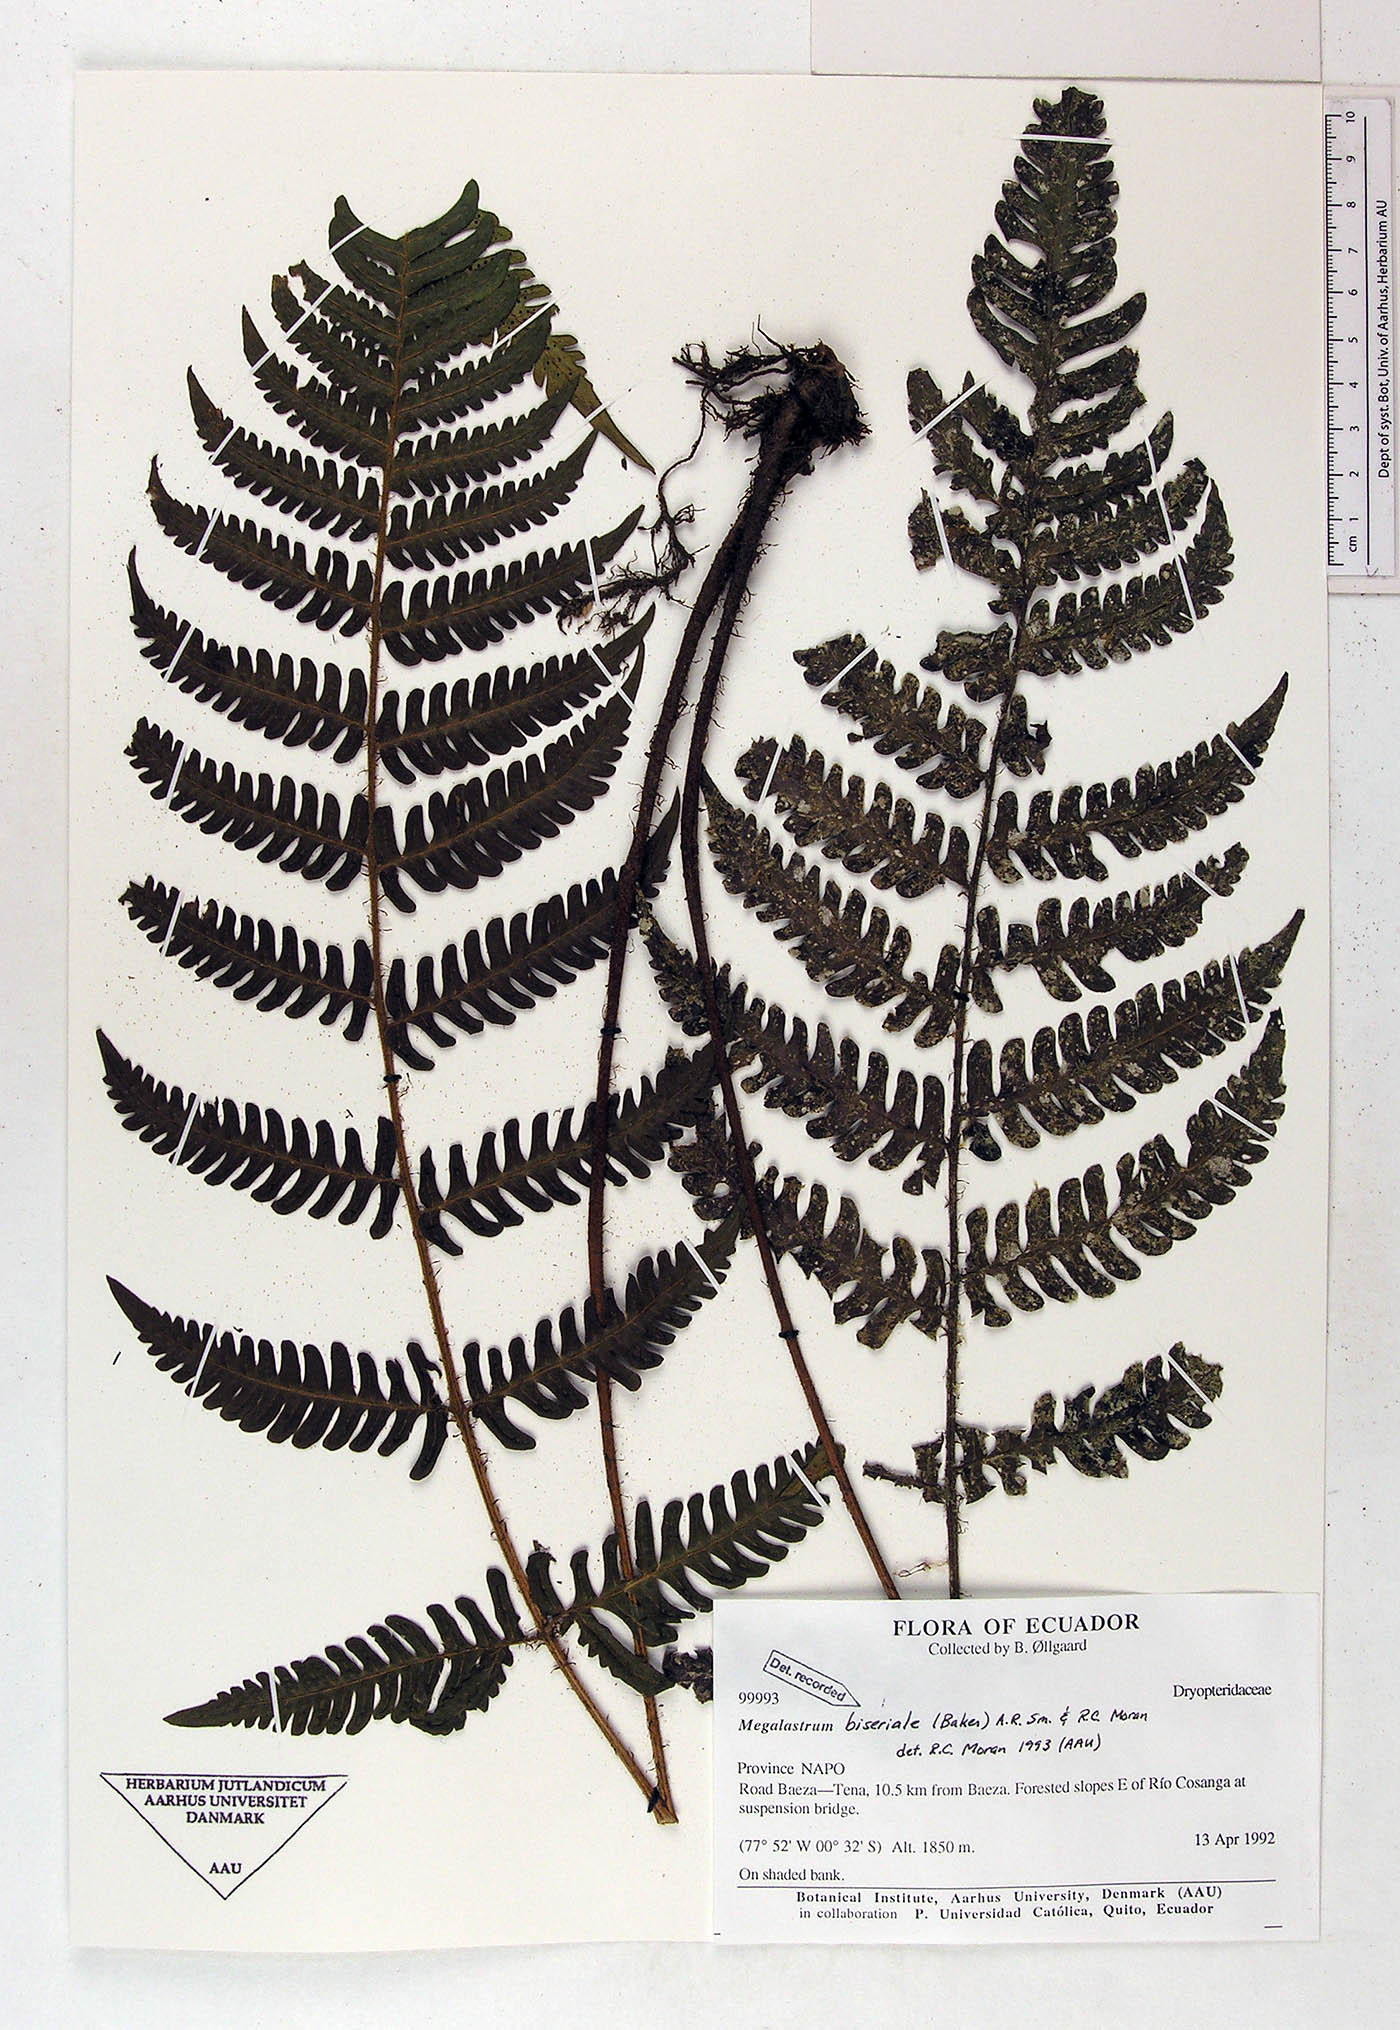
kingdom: Plantae
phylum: Tracheophyta
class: Polypodiopsida
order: Polypodiales
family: Dryopteridaceae
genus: Megalastrum
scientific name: Megalastrum biseriale
